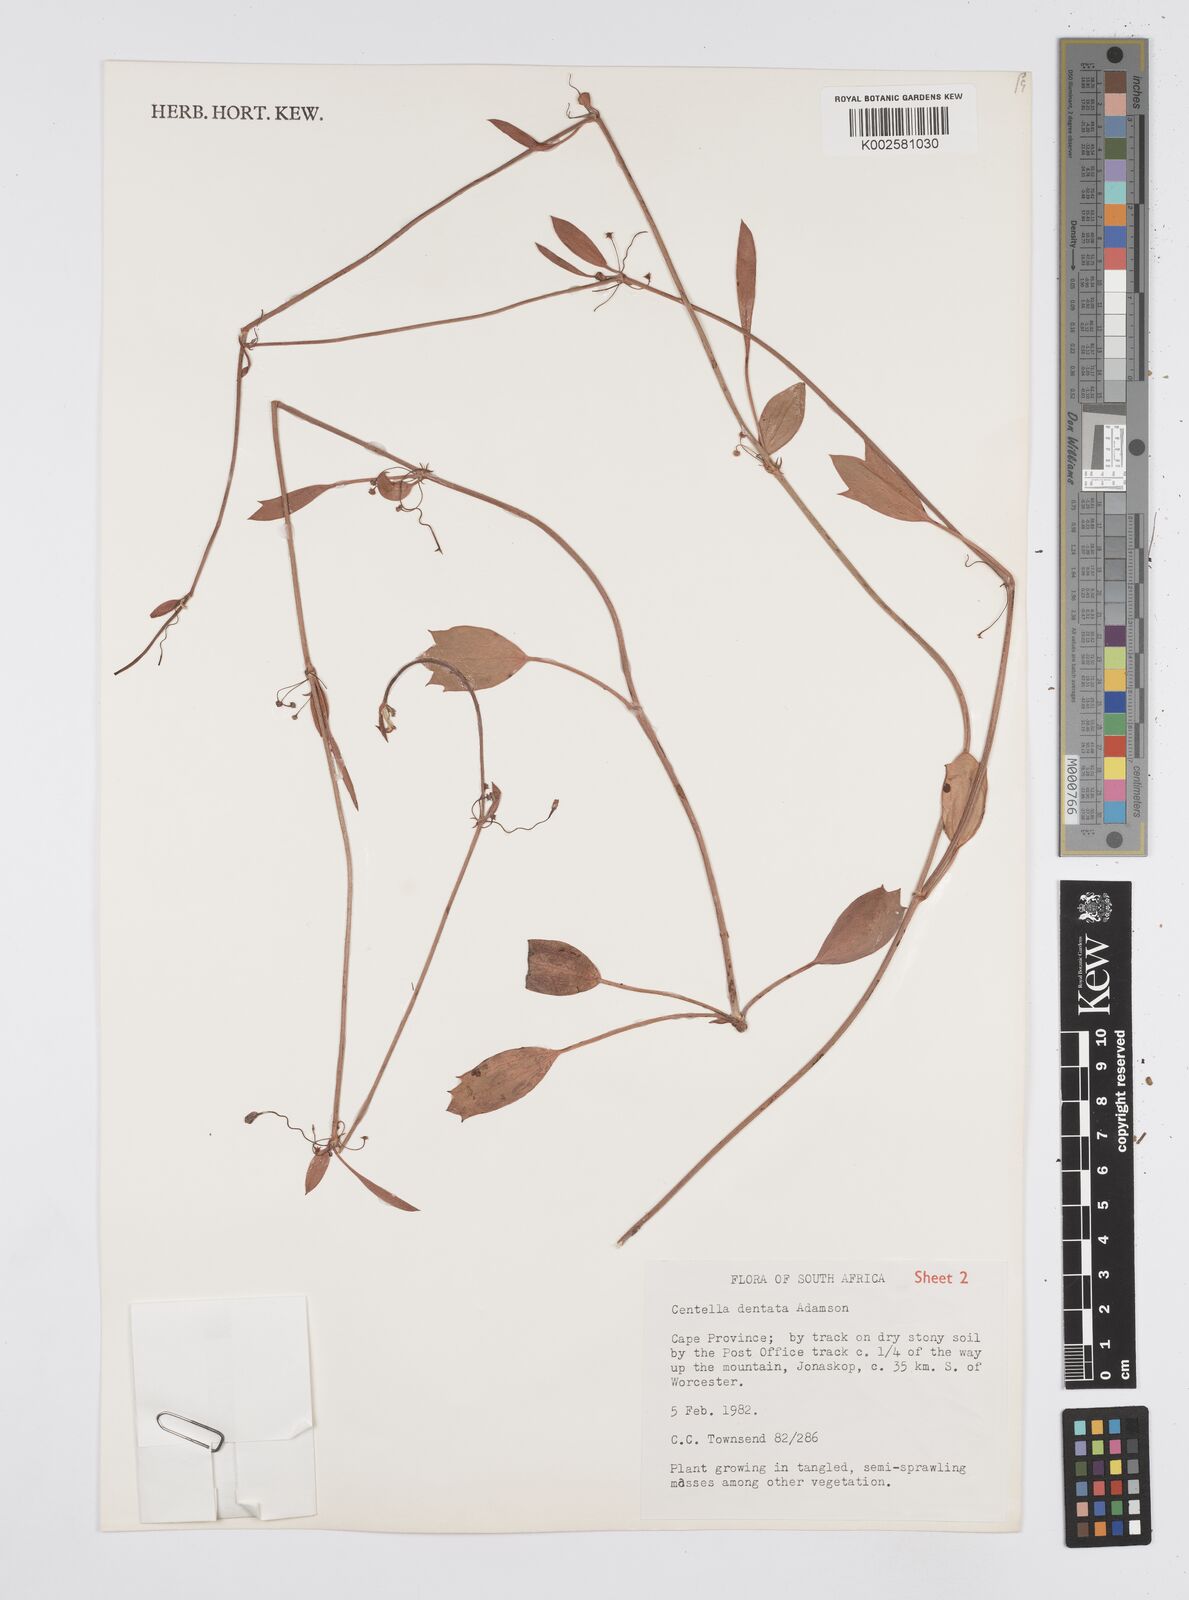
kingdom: Plantae
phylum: Tracheophyta
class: Magnoliopsida
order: Apiales
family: Apiaceae
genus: Centella
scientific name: Centella dentata
